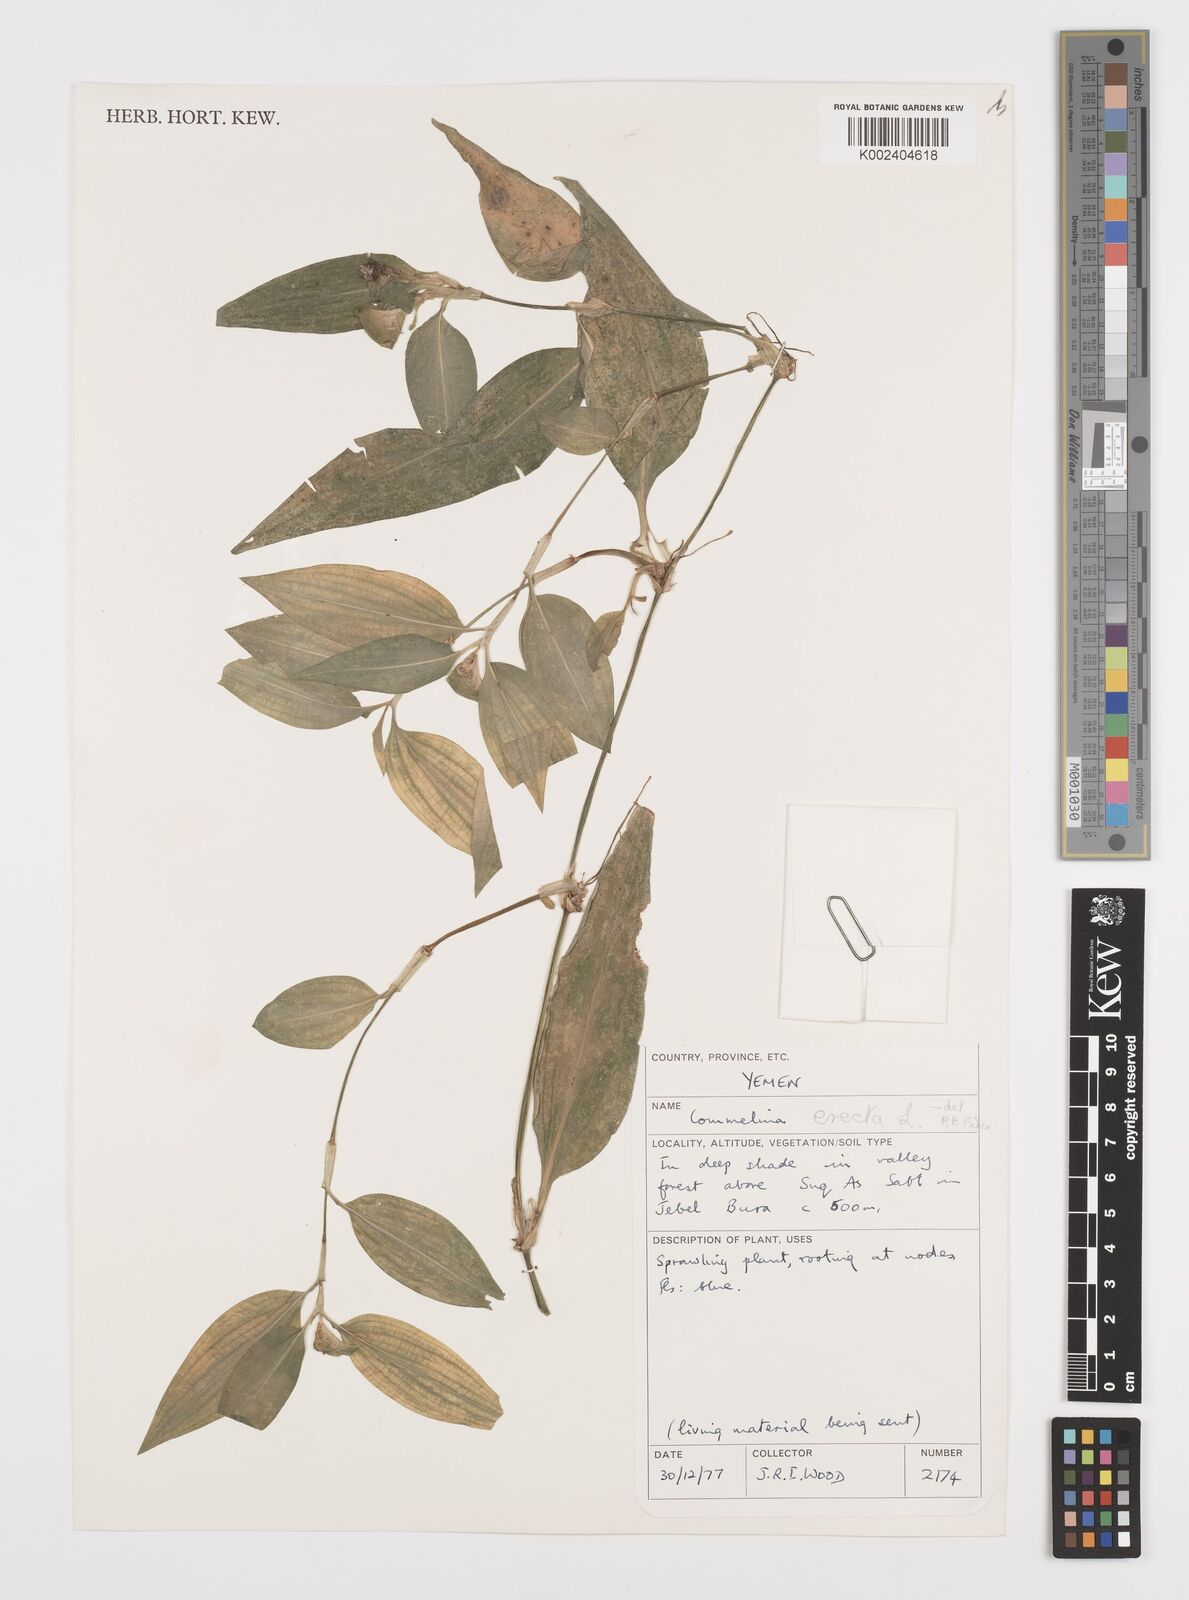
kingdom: Plantae
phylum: Tracheophyta
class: Liliopsida
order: Commelinales
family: Commelinaceae
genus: Commelina
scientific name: Commelina erecta
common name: Blousel blommetjie
